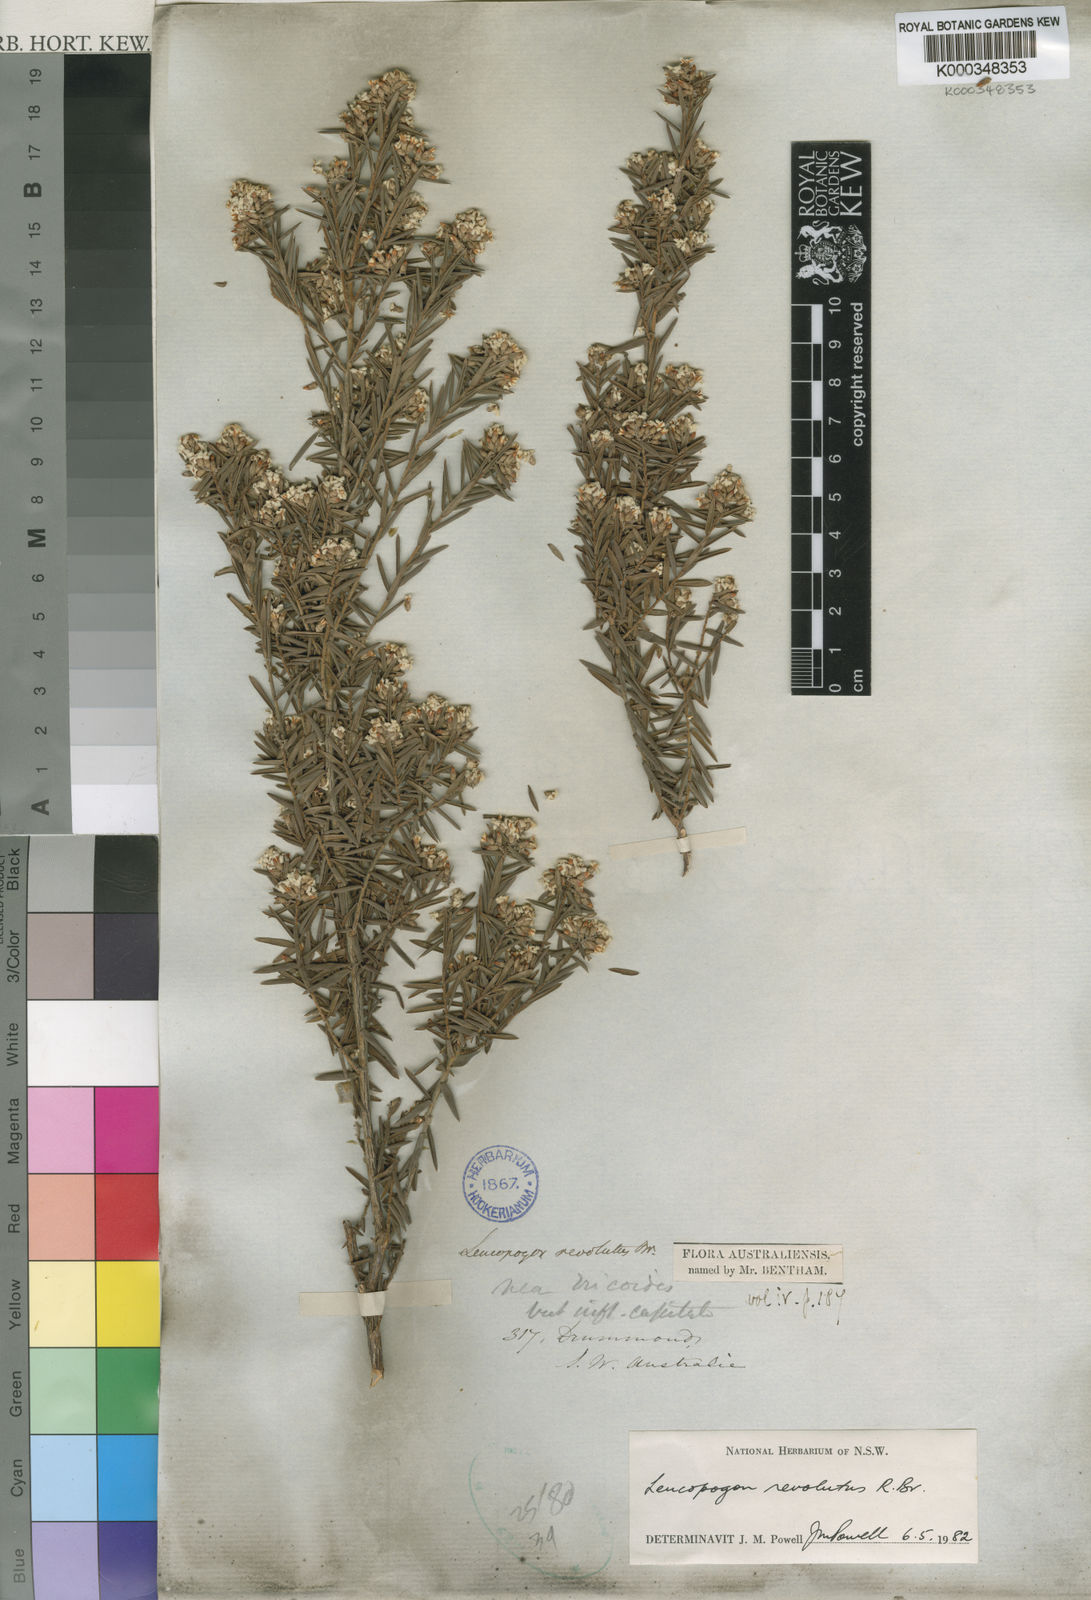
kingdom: Plantae
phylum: Tracheophyta
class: Magnoliopsida
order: Ericales
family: Ericaceae
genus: Leucopogon
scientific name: Leucopogon obovatus
